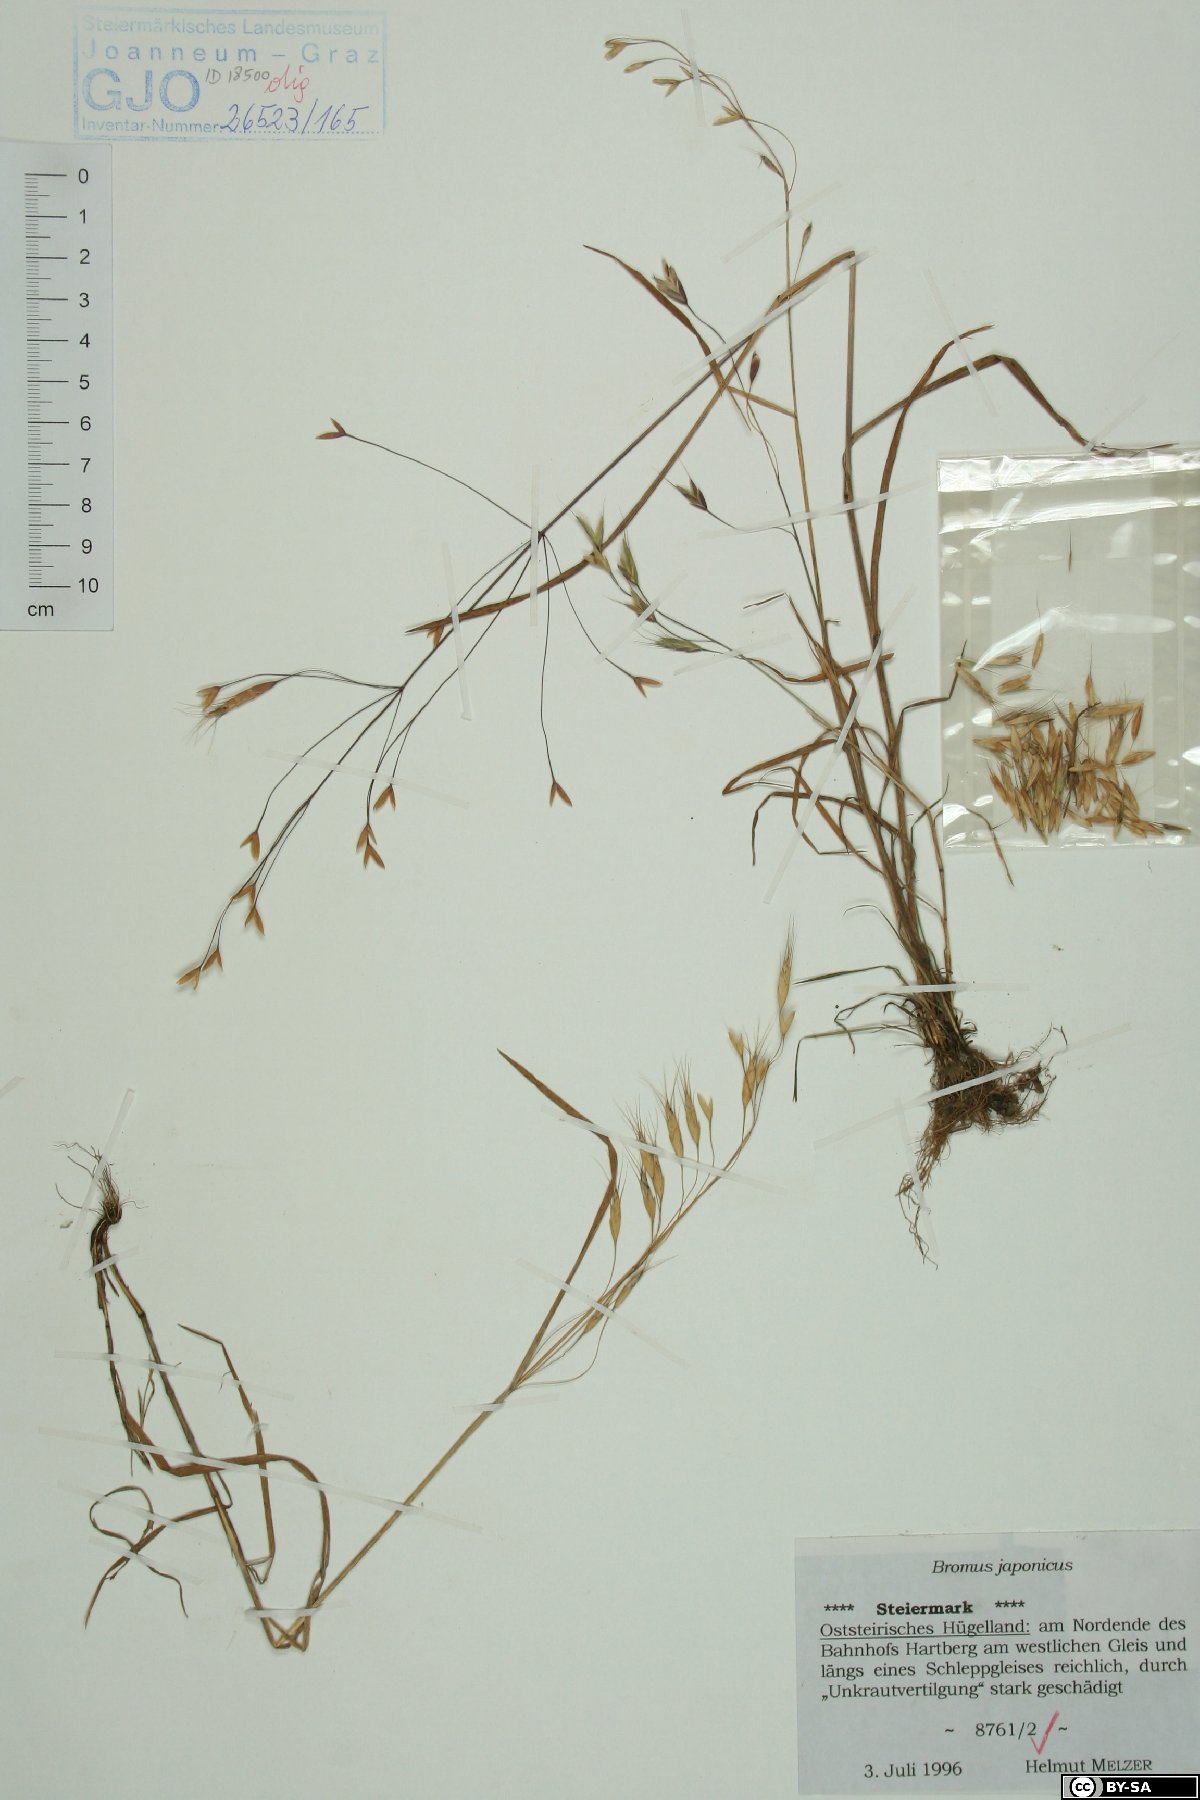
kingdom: Plantae
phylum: Tracheophyta
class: Liliopsida
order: Poales
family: Poaceae
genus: Bromus
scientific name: Bromus japonicus
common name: Japanese brome
